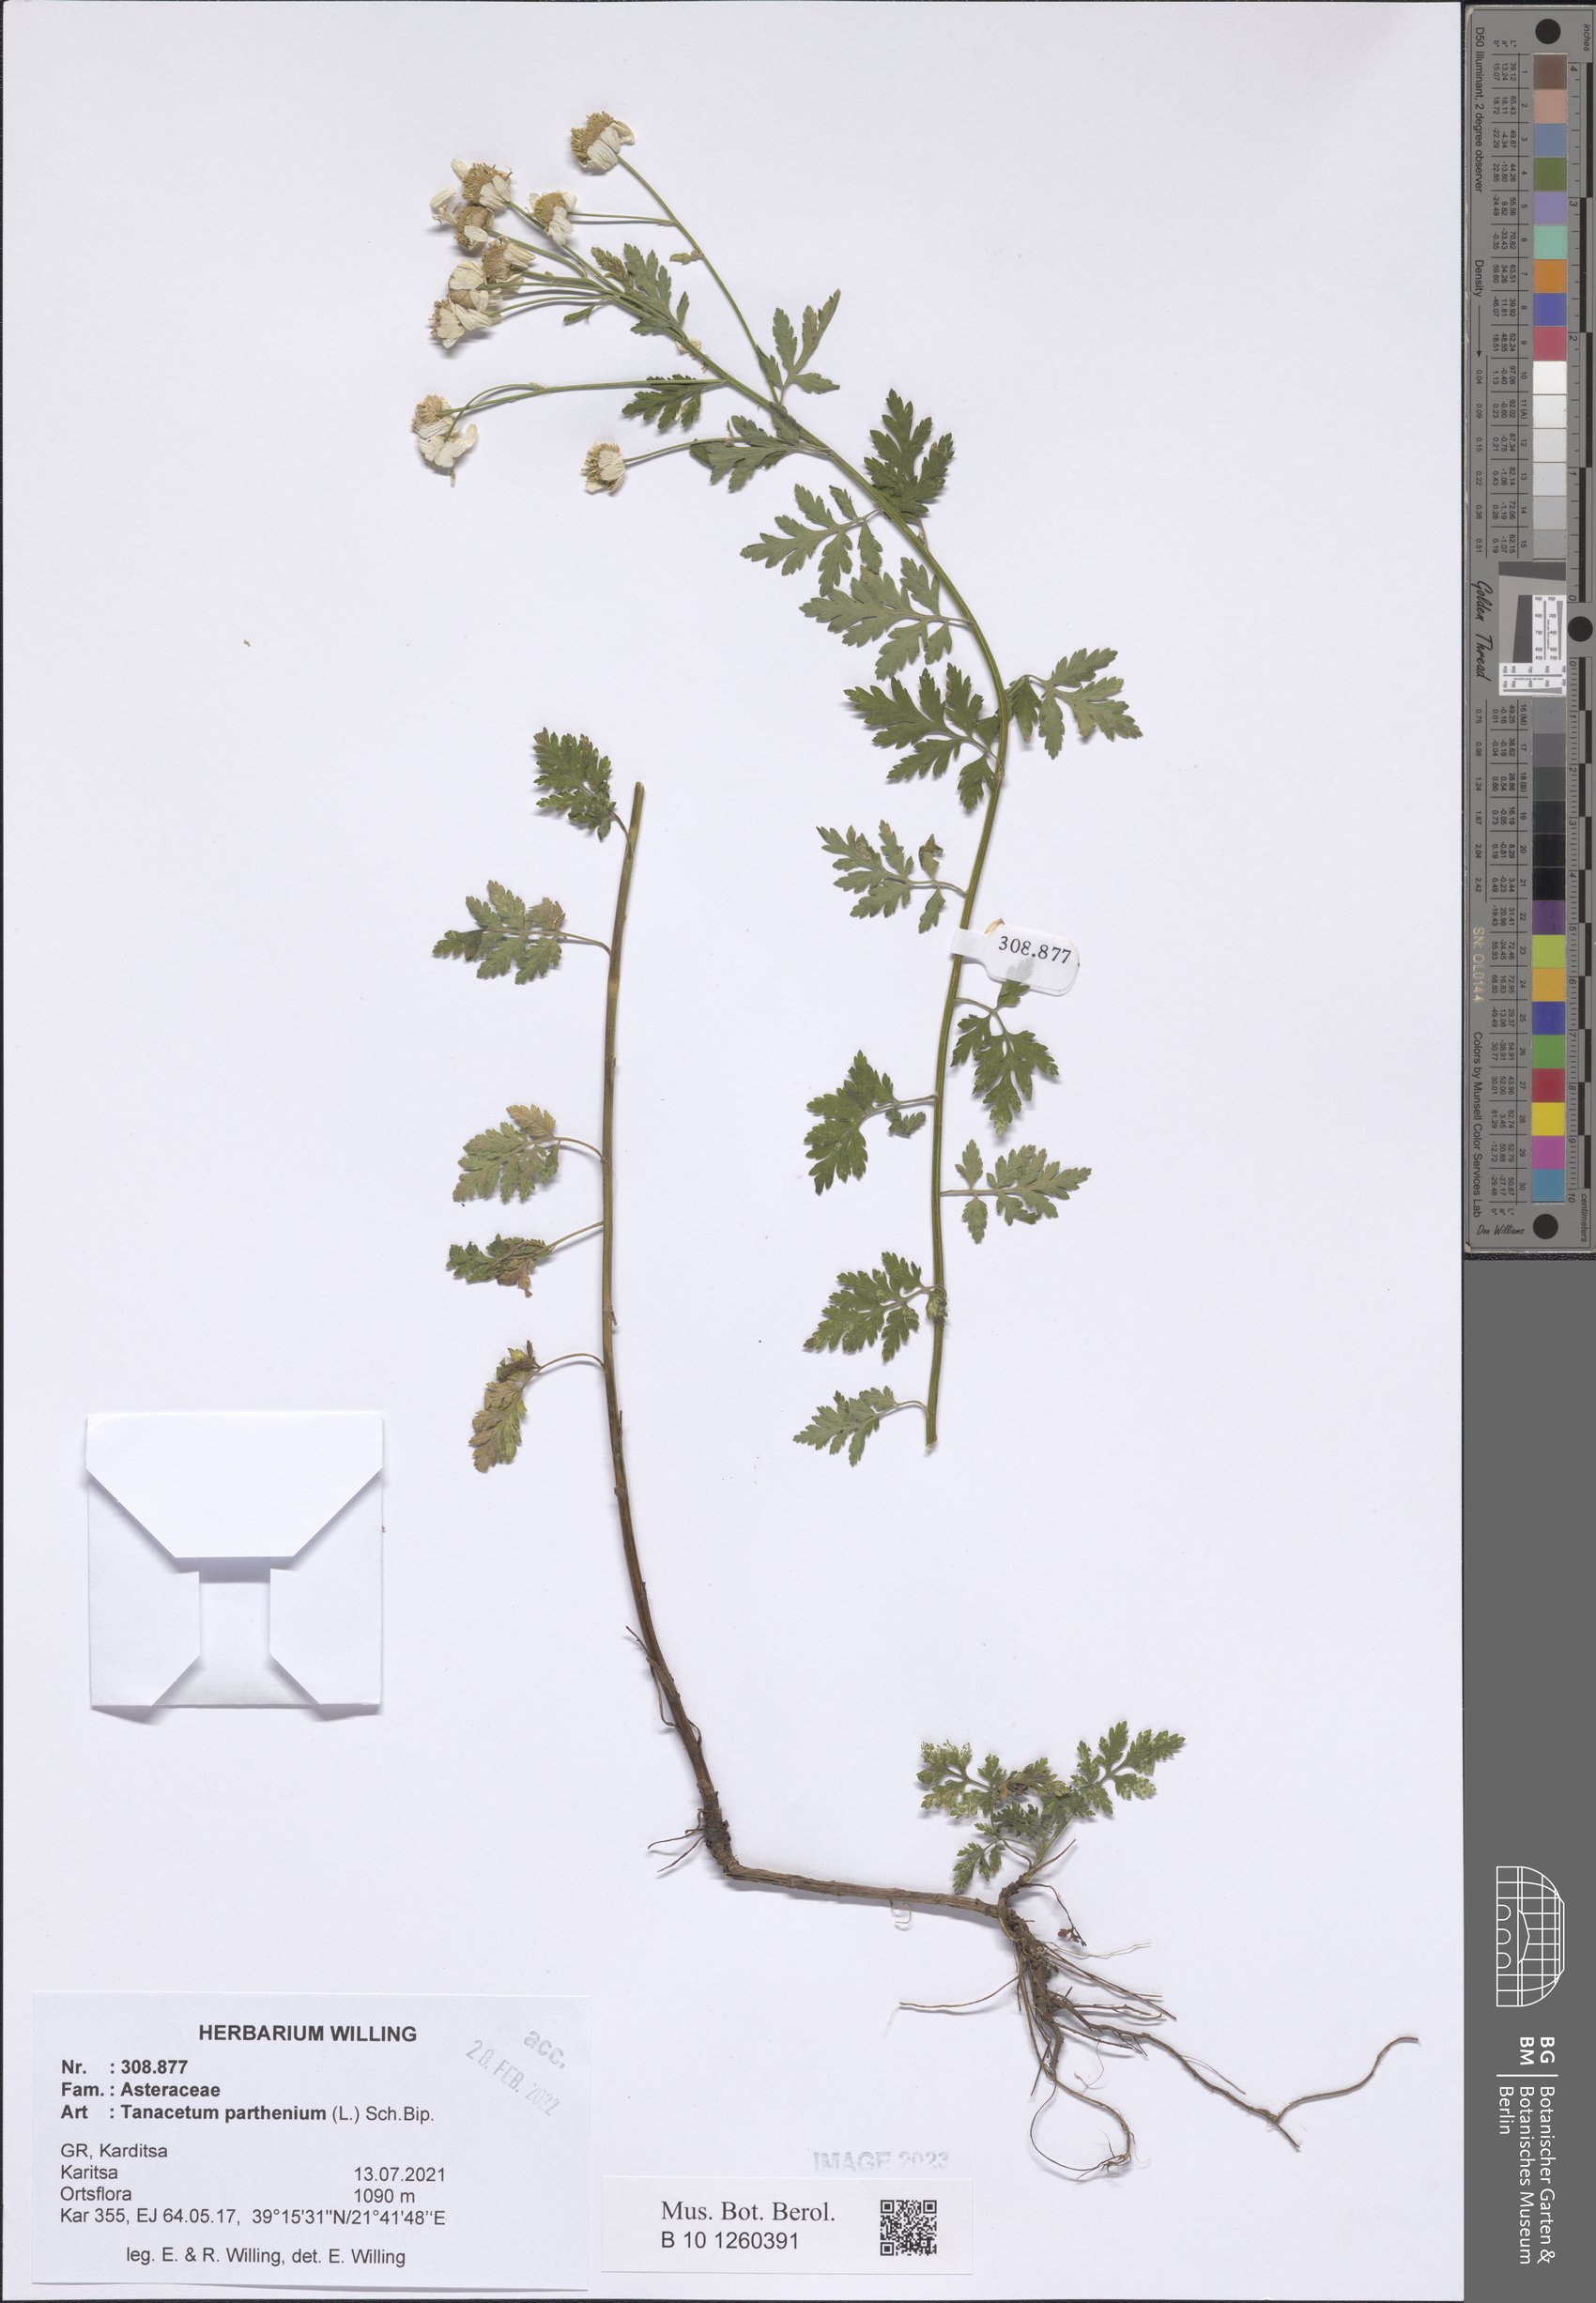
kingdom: Plantae
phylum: Tracheophyta
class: Magnoliopsida
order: Asterales
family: Asteraceae
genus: Tanacetum
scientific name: Tanacetum parthenium
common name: Feverfew
